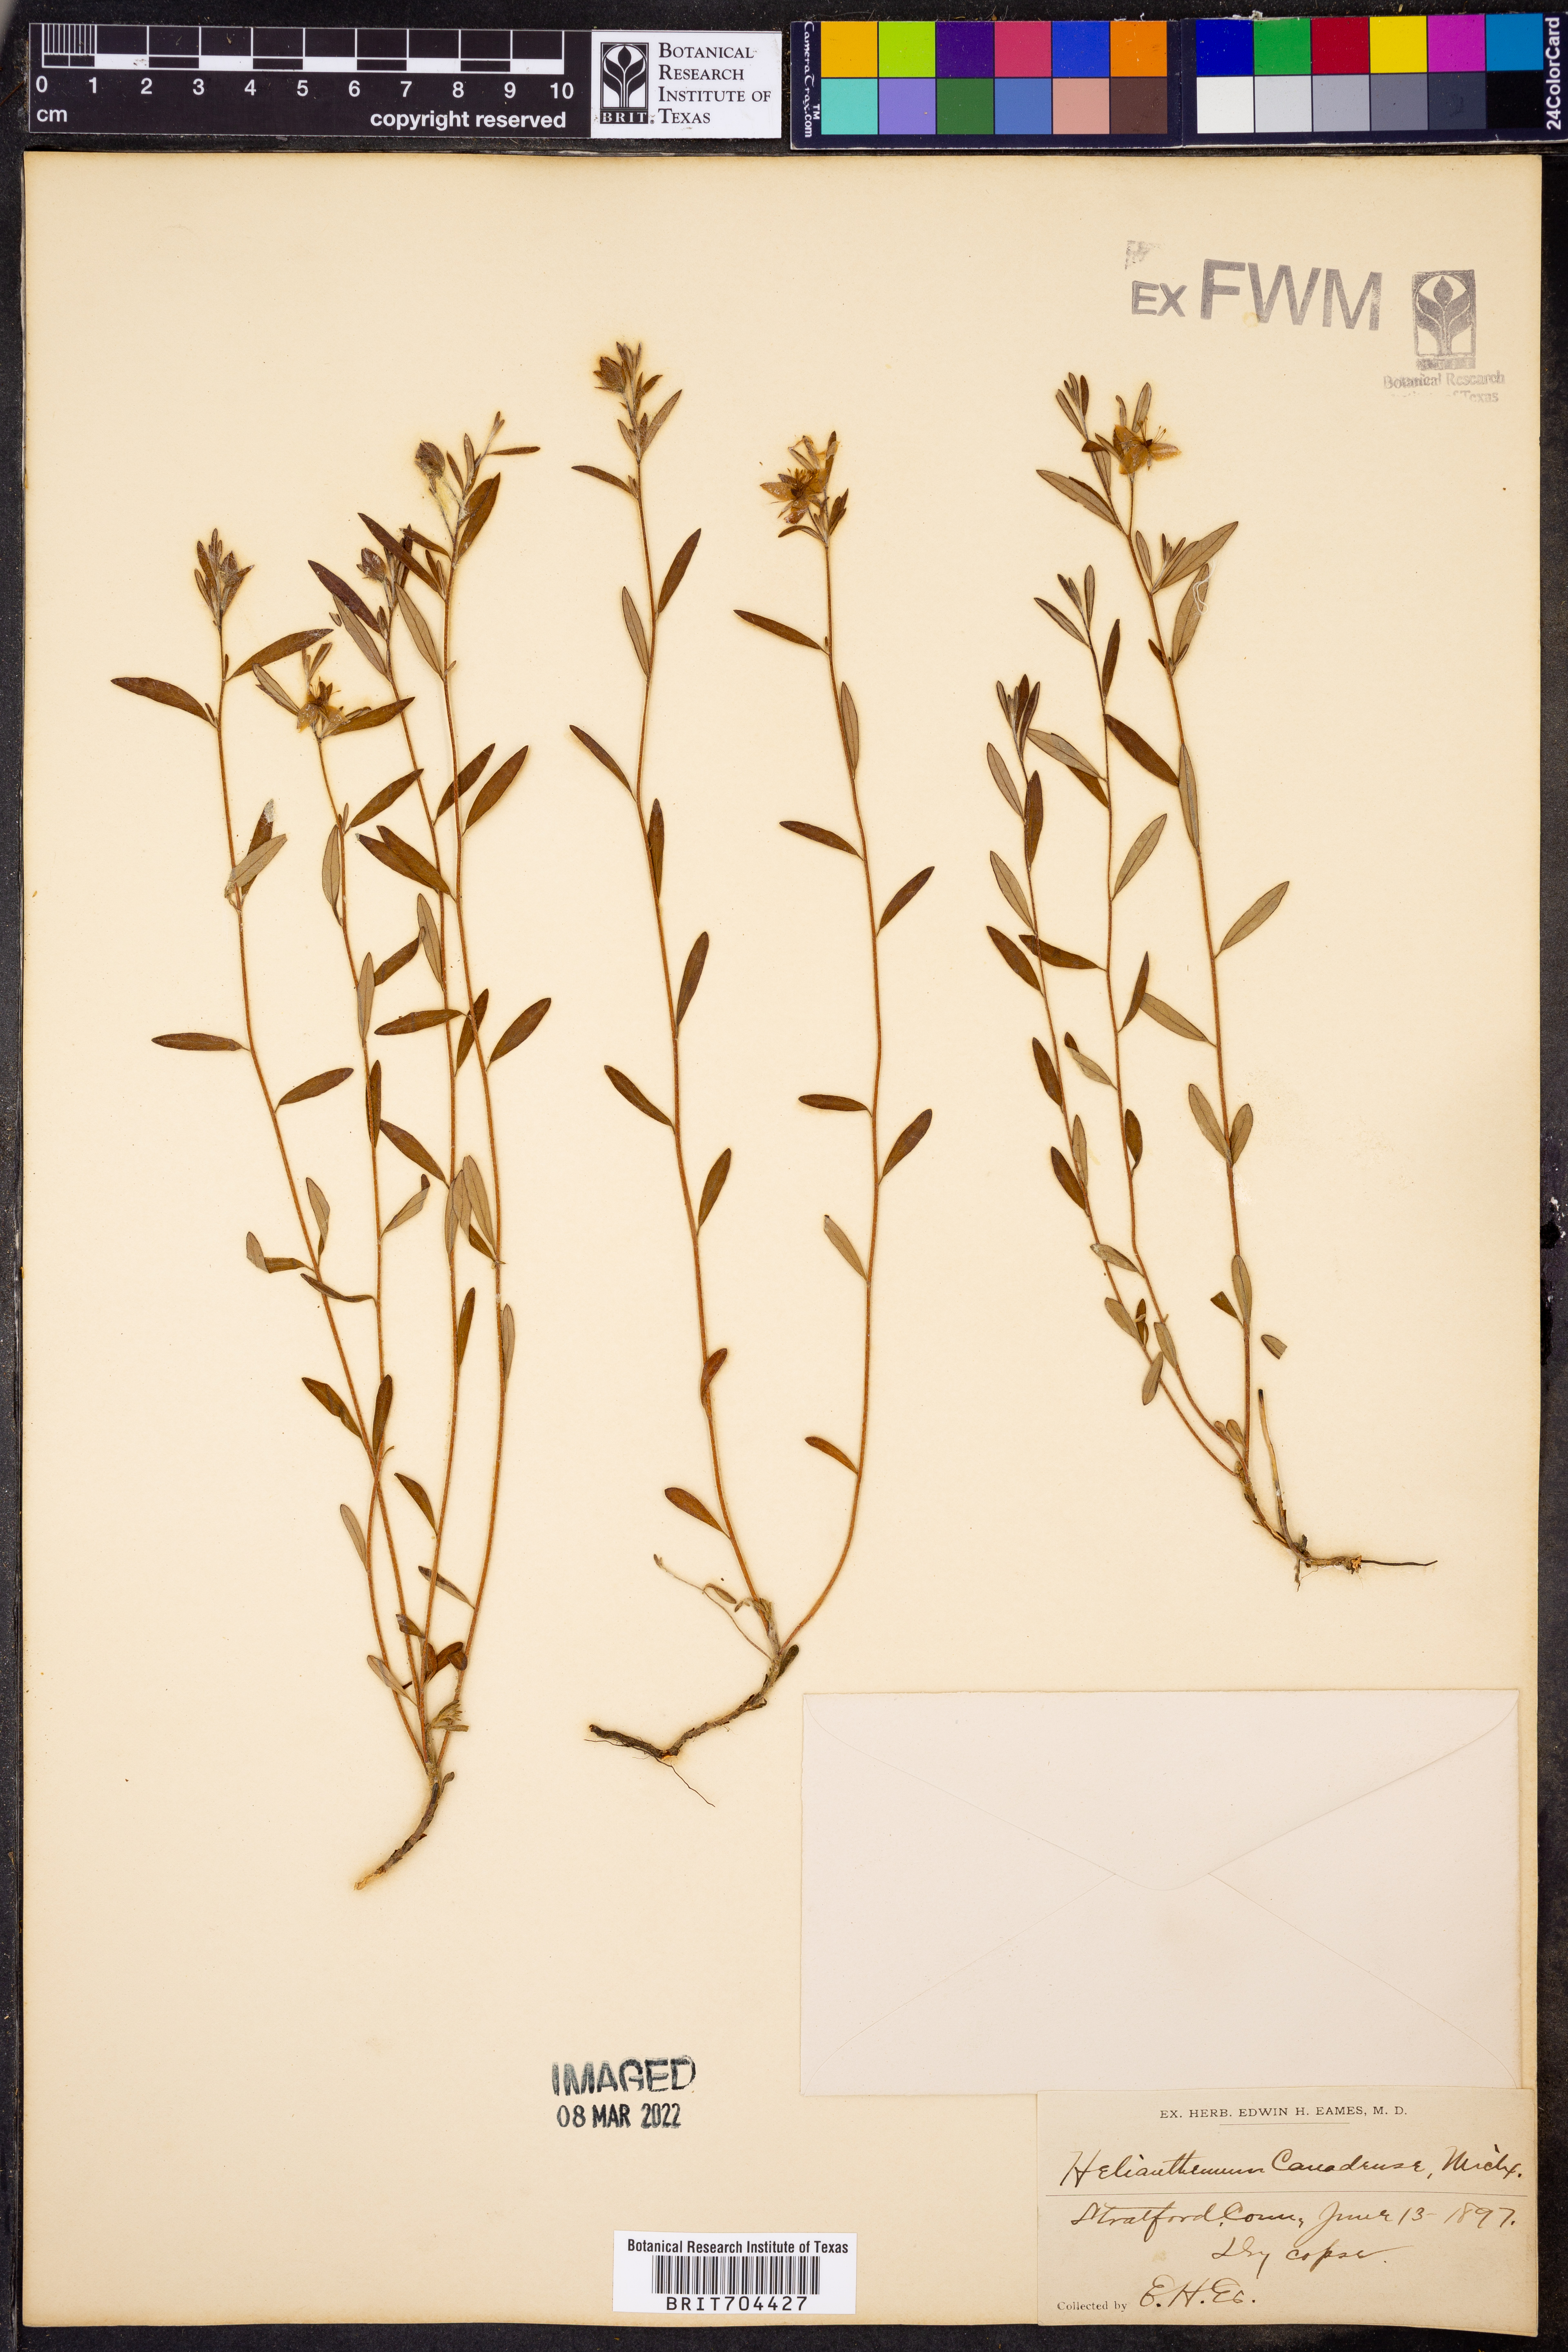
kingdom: Plantae
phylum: Tracheophyta
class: Magnoliopsida
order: Malvales
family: Cistaceae
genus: Crocanthemum
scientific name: Crocanthemum canadense
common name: Canada frostweed
